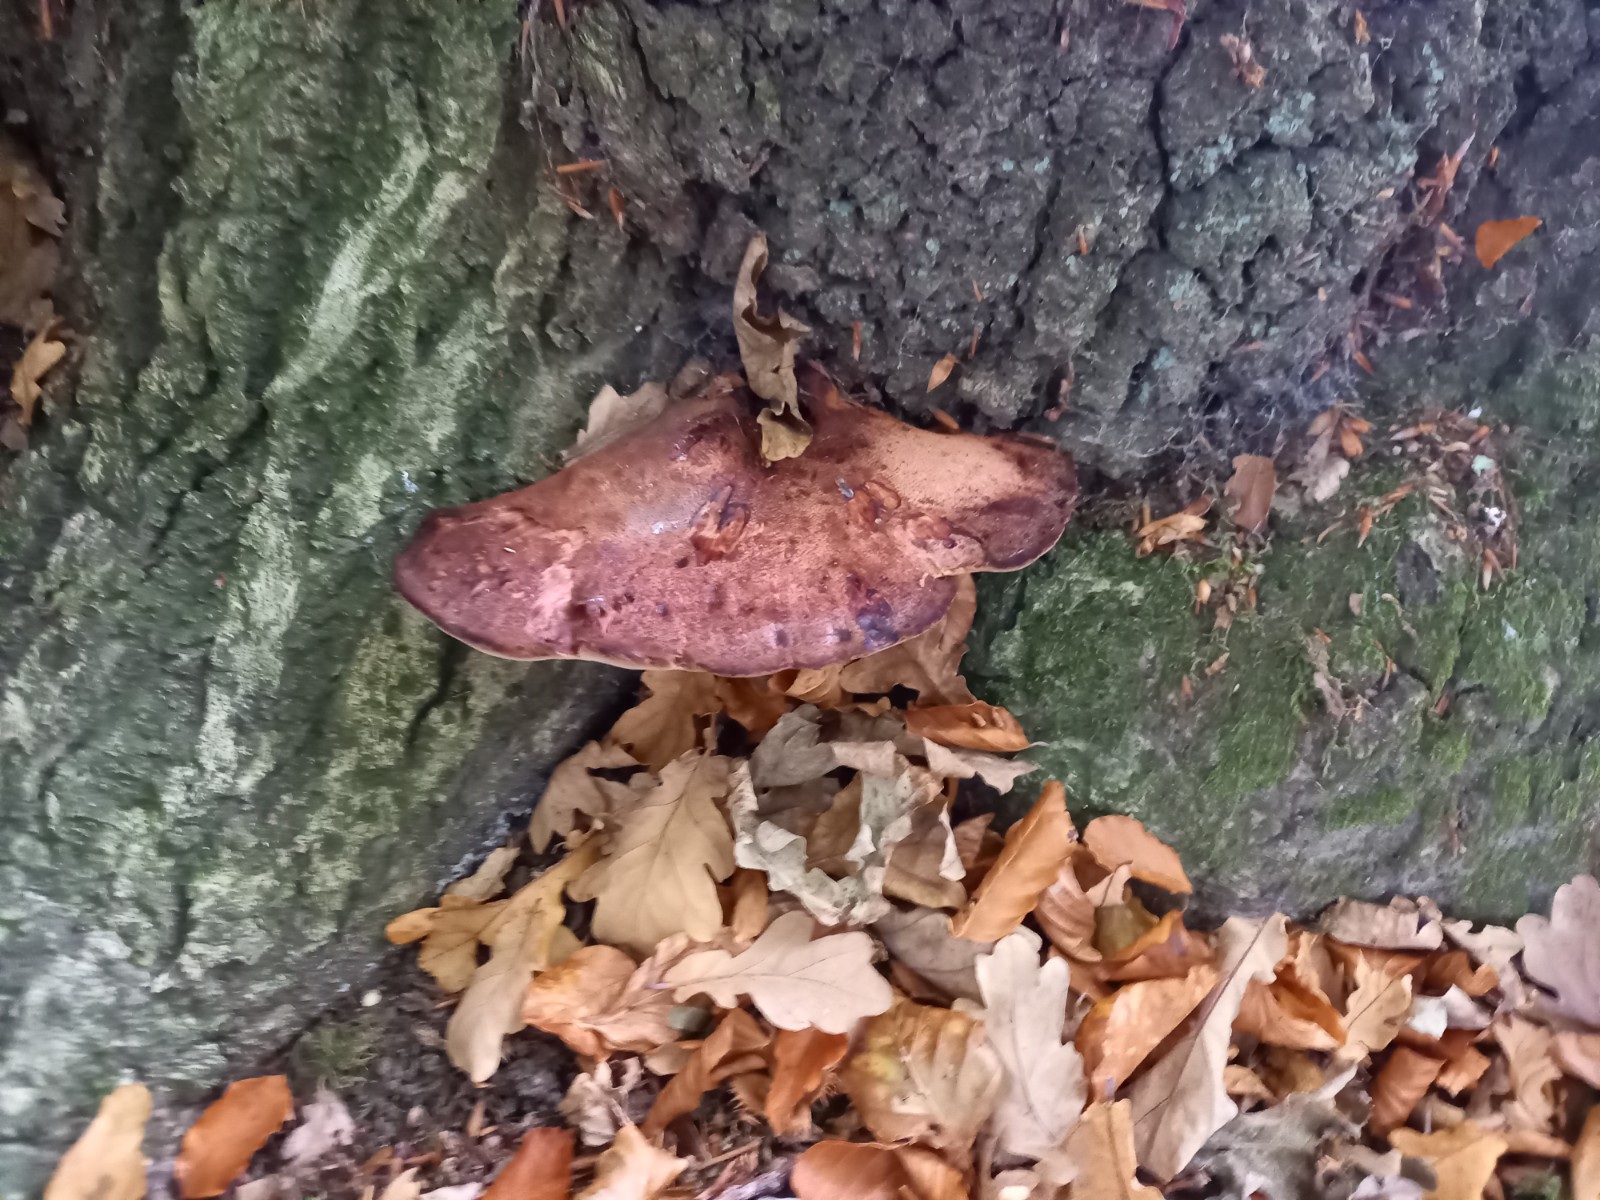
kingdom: Fungi
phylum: Basidiomycota
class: Agaricomycetes
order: Agaricales
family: Fistulinaceae
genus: Fistulina
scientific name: Fistulina hepatica
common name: oksetunge
